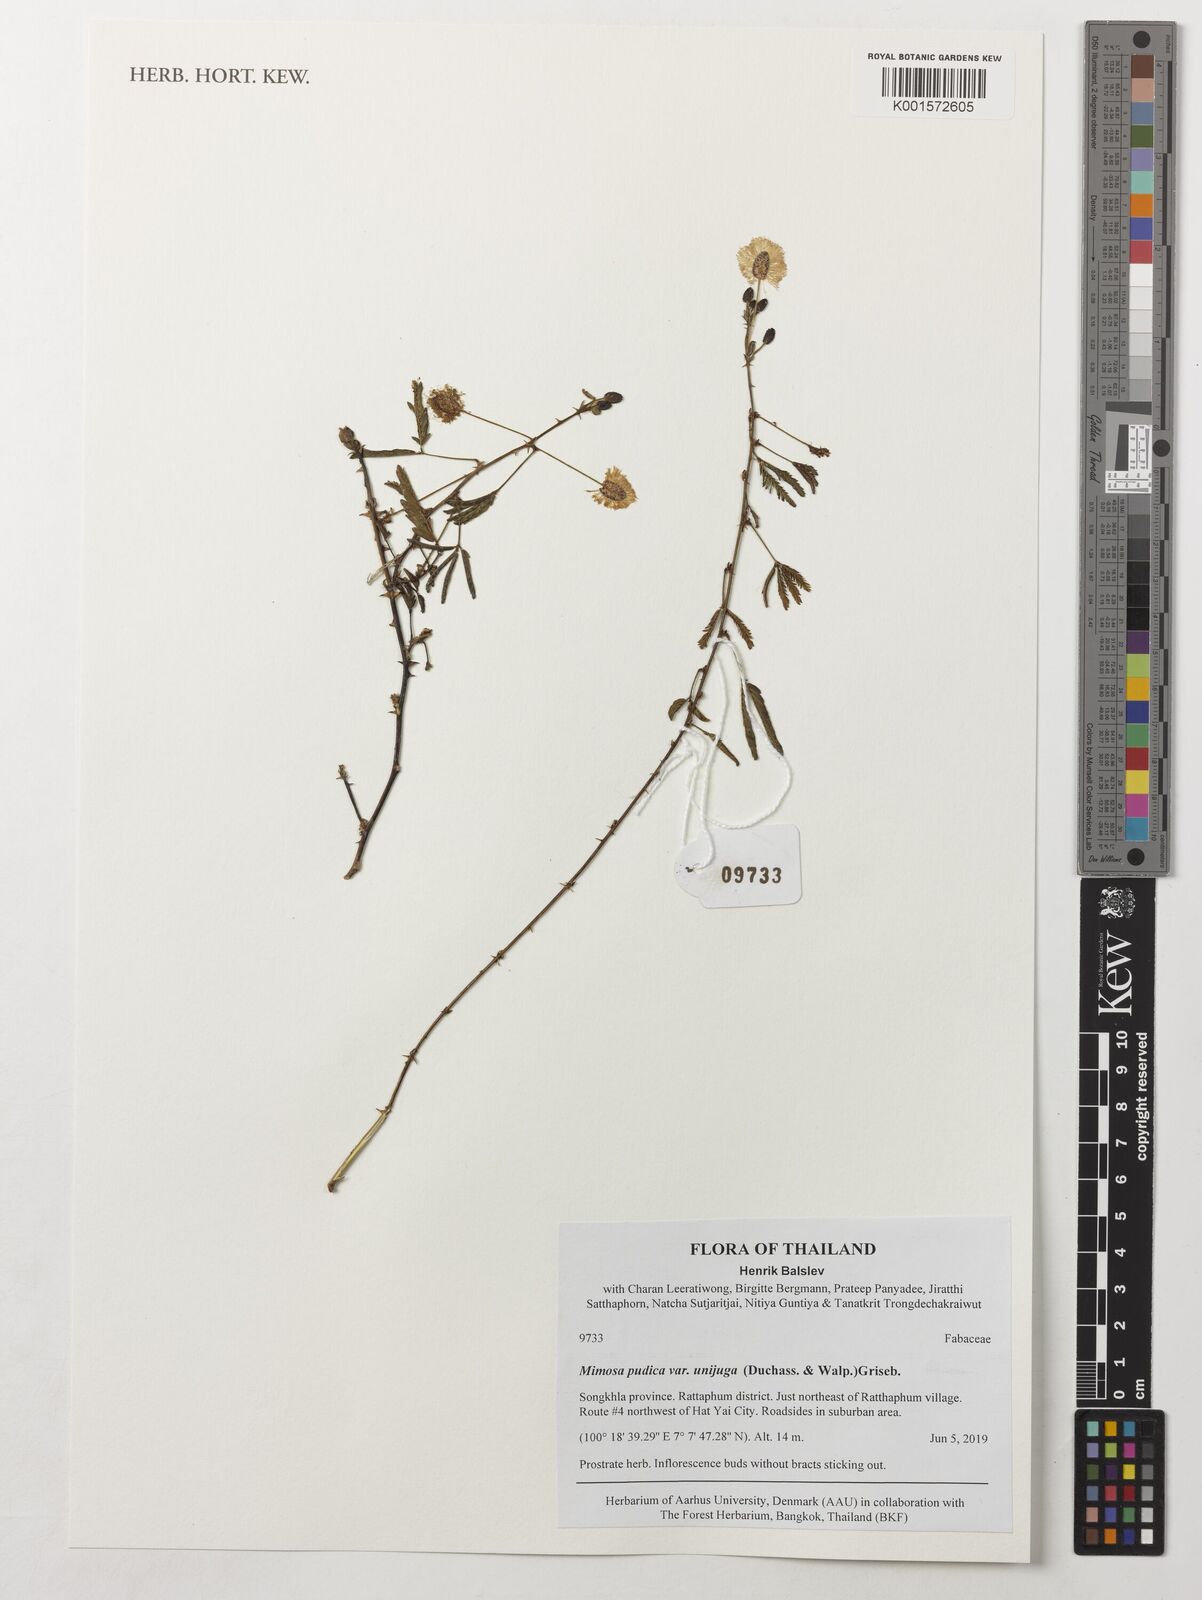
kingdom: Plantae
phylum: Tracheophyta
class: Magnoliopsida
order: Fabales
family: Fabaceae
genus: Mimosa
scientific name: Mimosa pudica
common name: Sensitive plant
